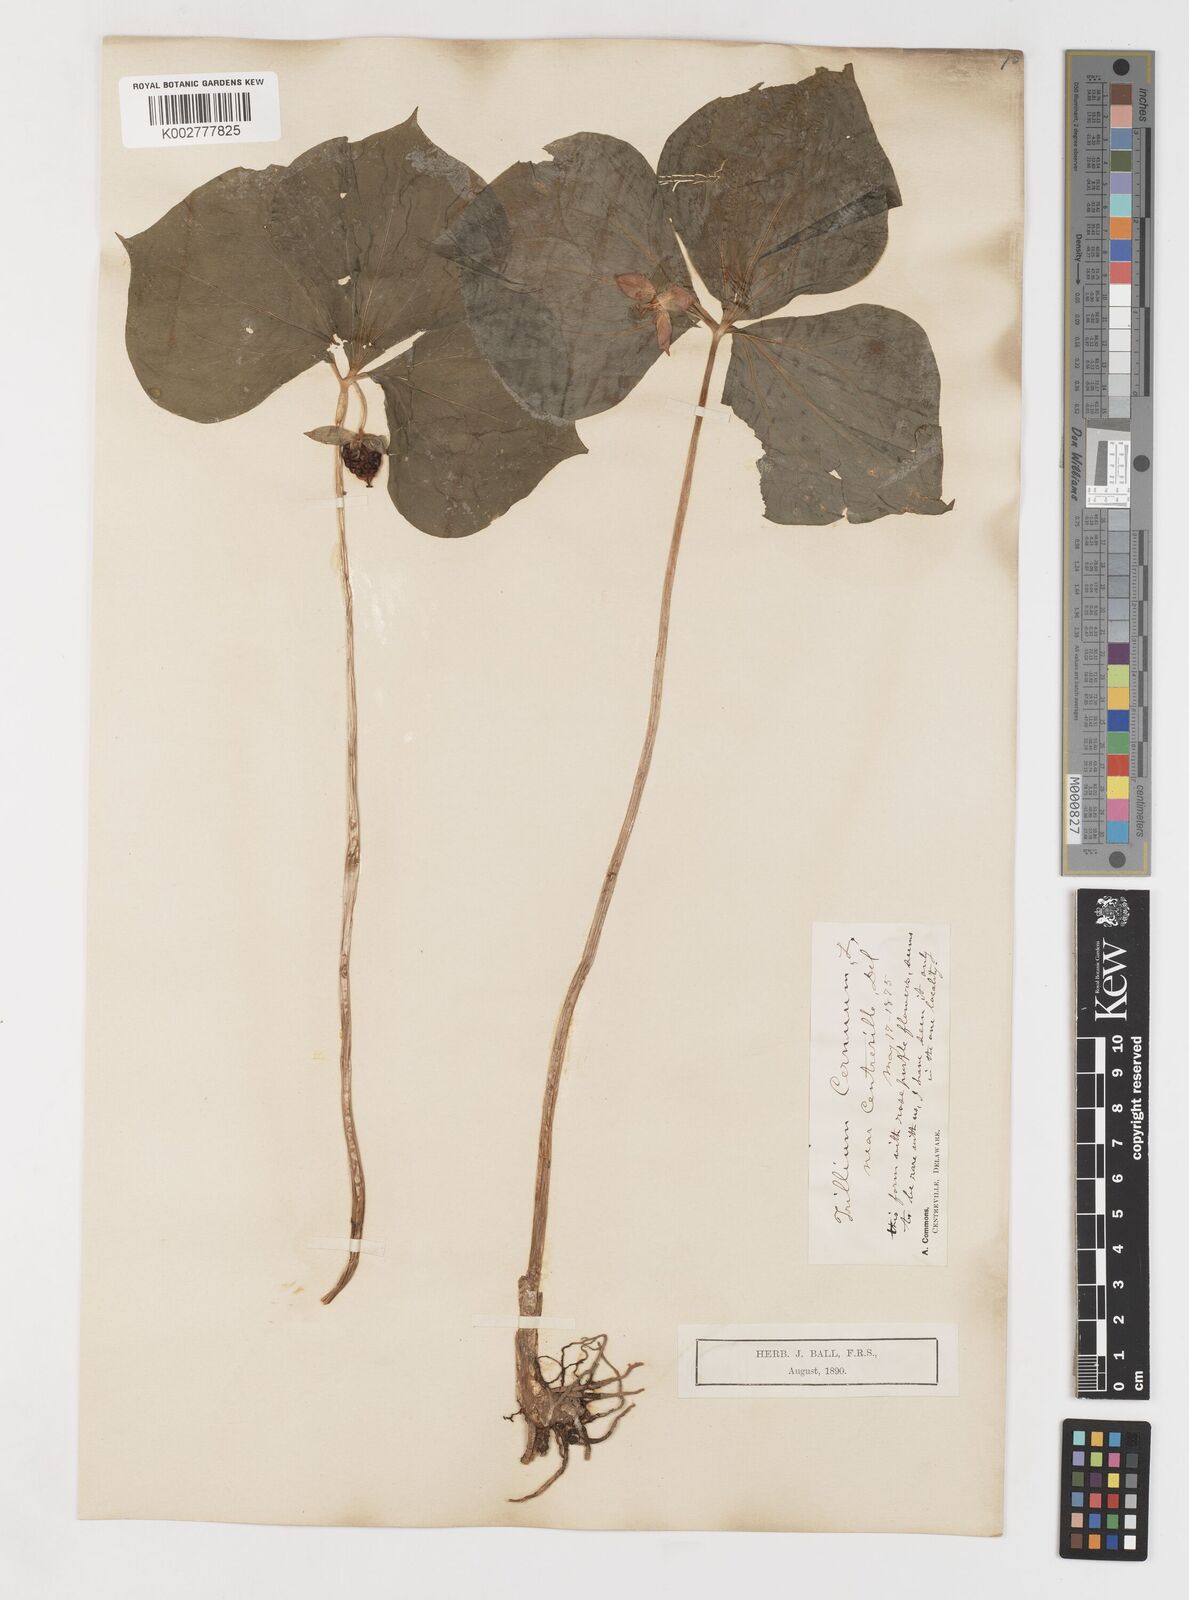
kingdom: Plantae
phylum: Tracheophyta
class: Liliopsida
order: Liliales
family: Melanthiaceae
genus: Trillium
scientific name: Trillium cernuum
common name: Nodding trillium
